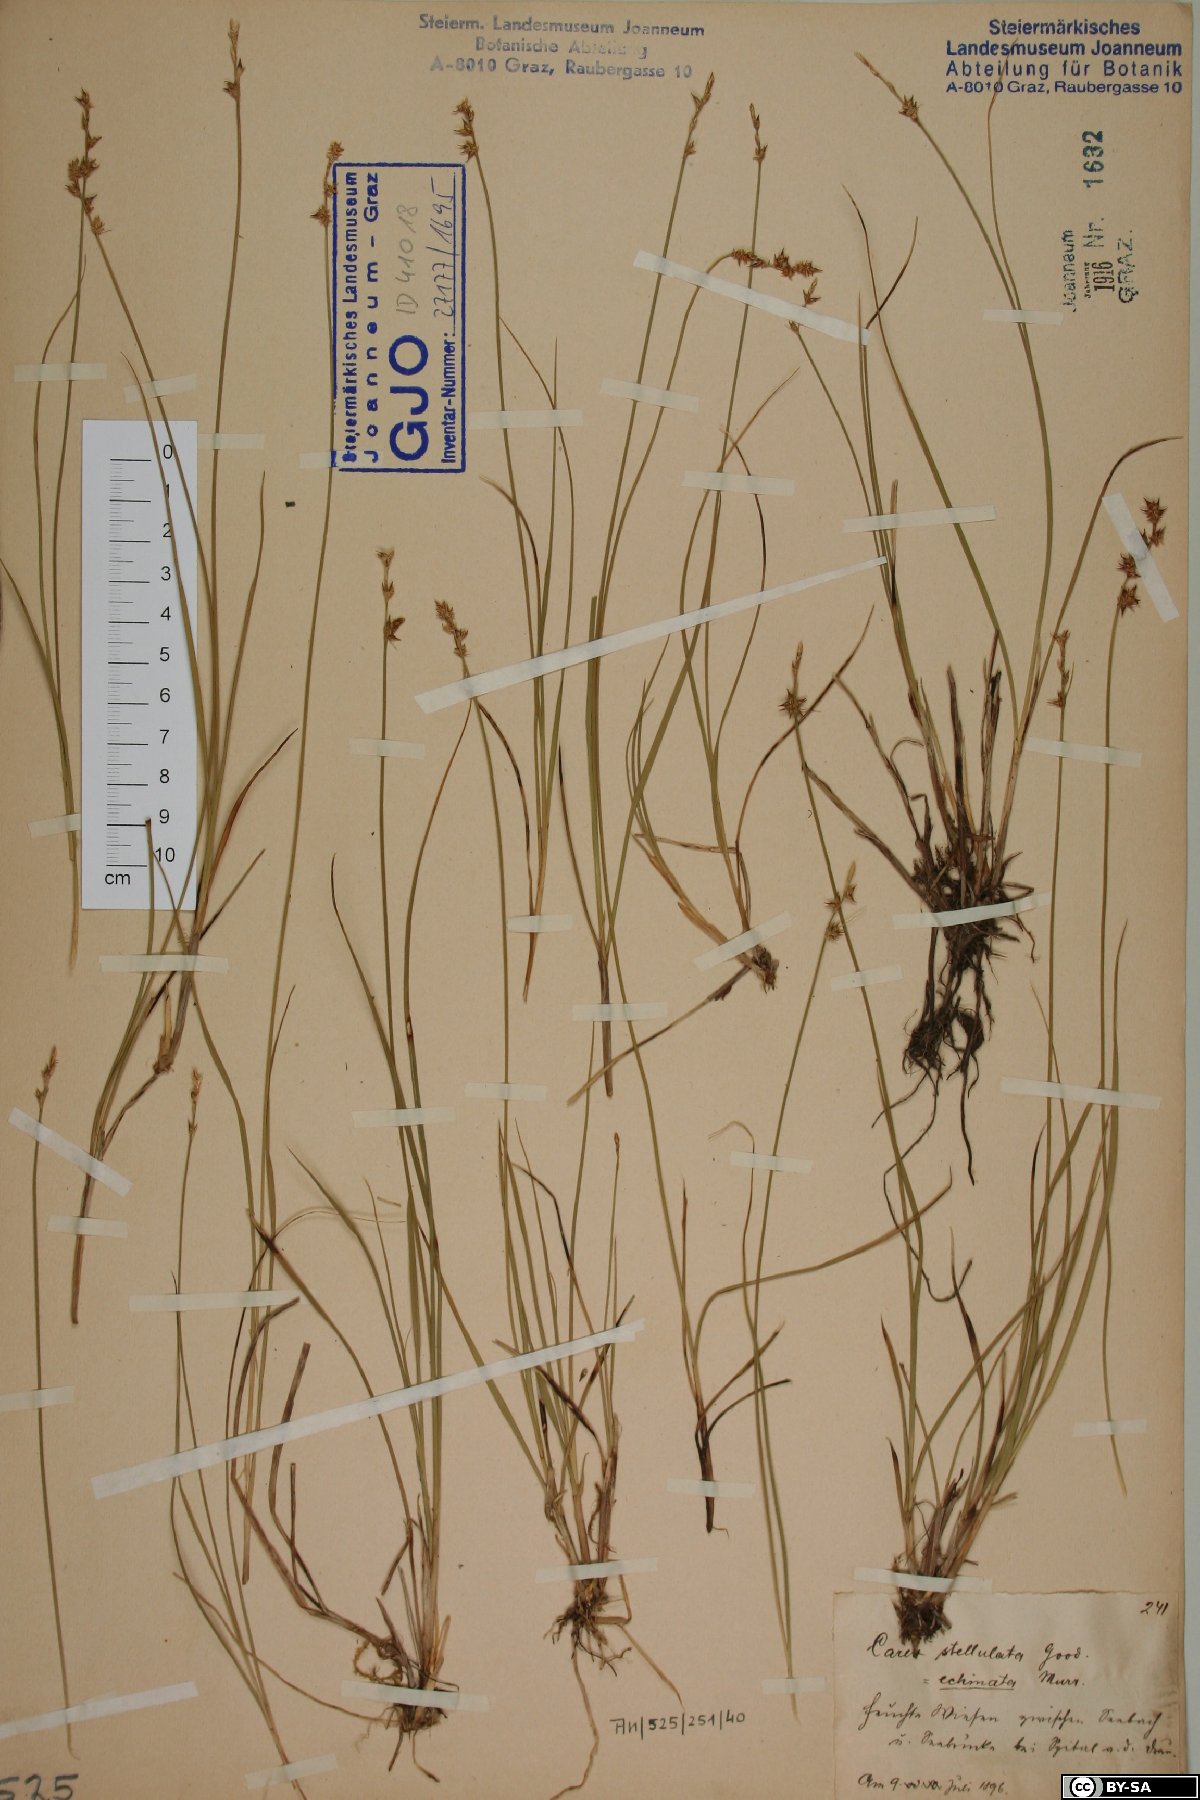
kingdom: Plantae
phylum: Tracheophyta
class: Liliopsida
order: Poales
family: Cyperaceae
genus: Carex
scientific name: Carex echinata
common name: Star sedge
